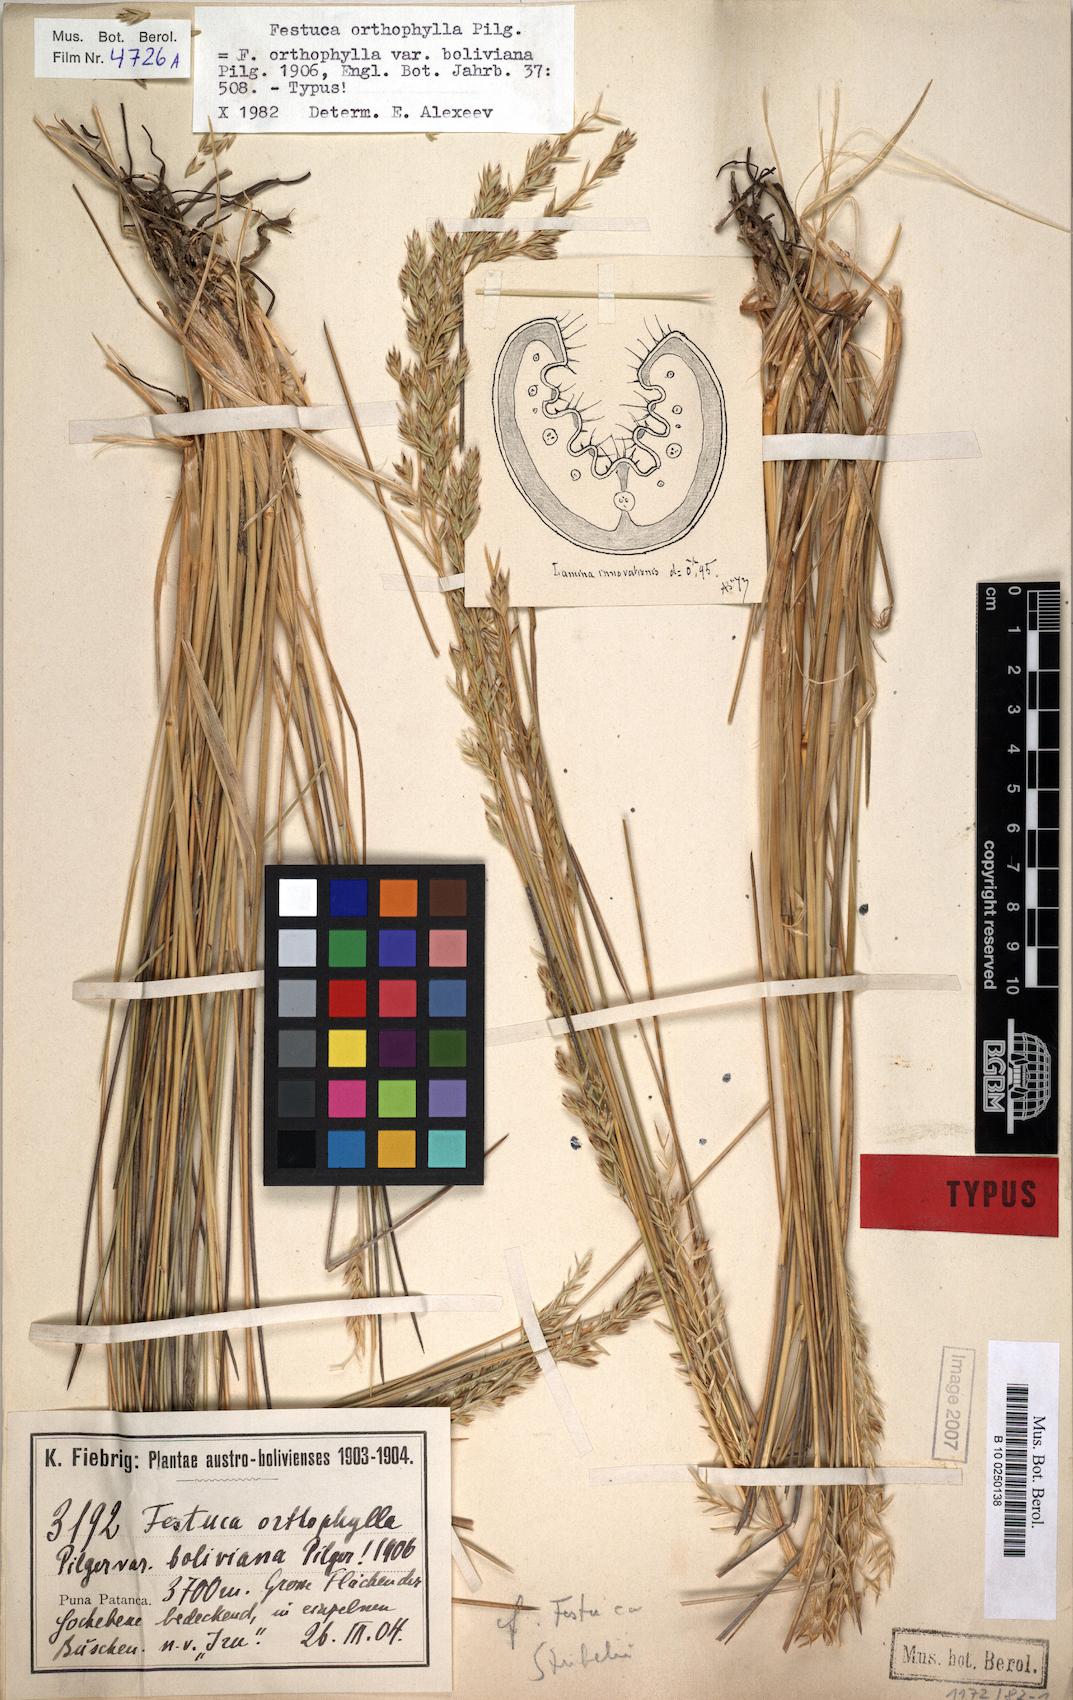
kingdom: Plantae
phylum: Tracheophyta
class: Liliopsida
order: Poales
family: Poaceae
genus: Festuca
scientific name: Festuca chrysophylla
